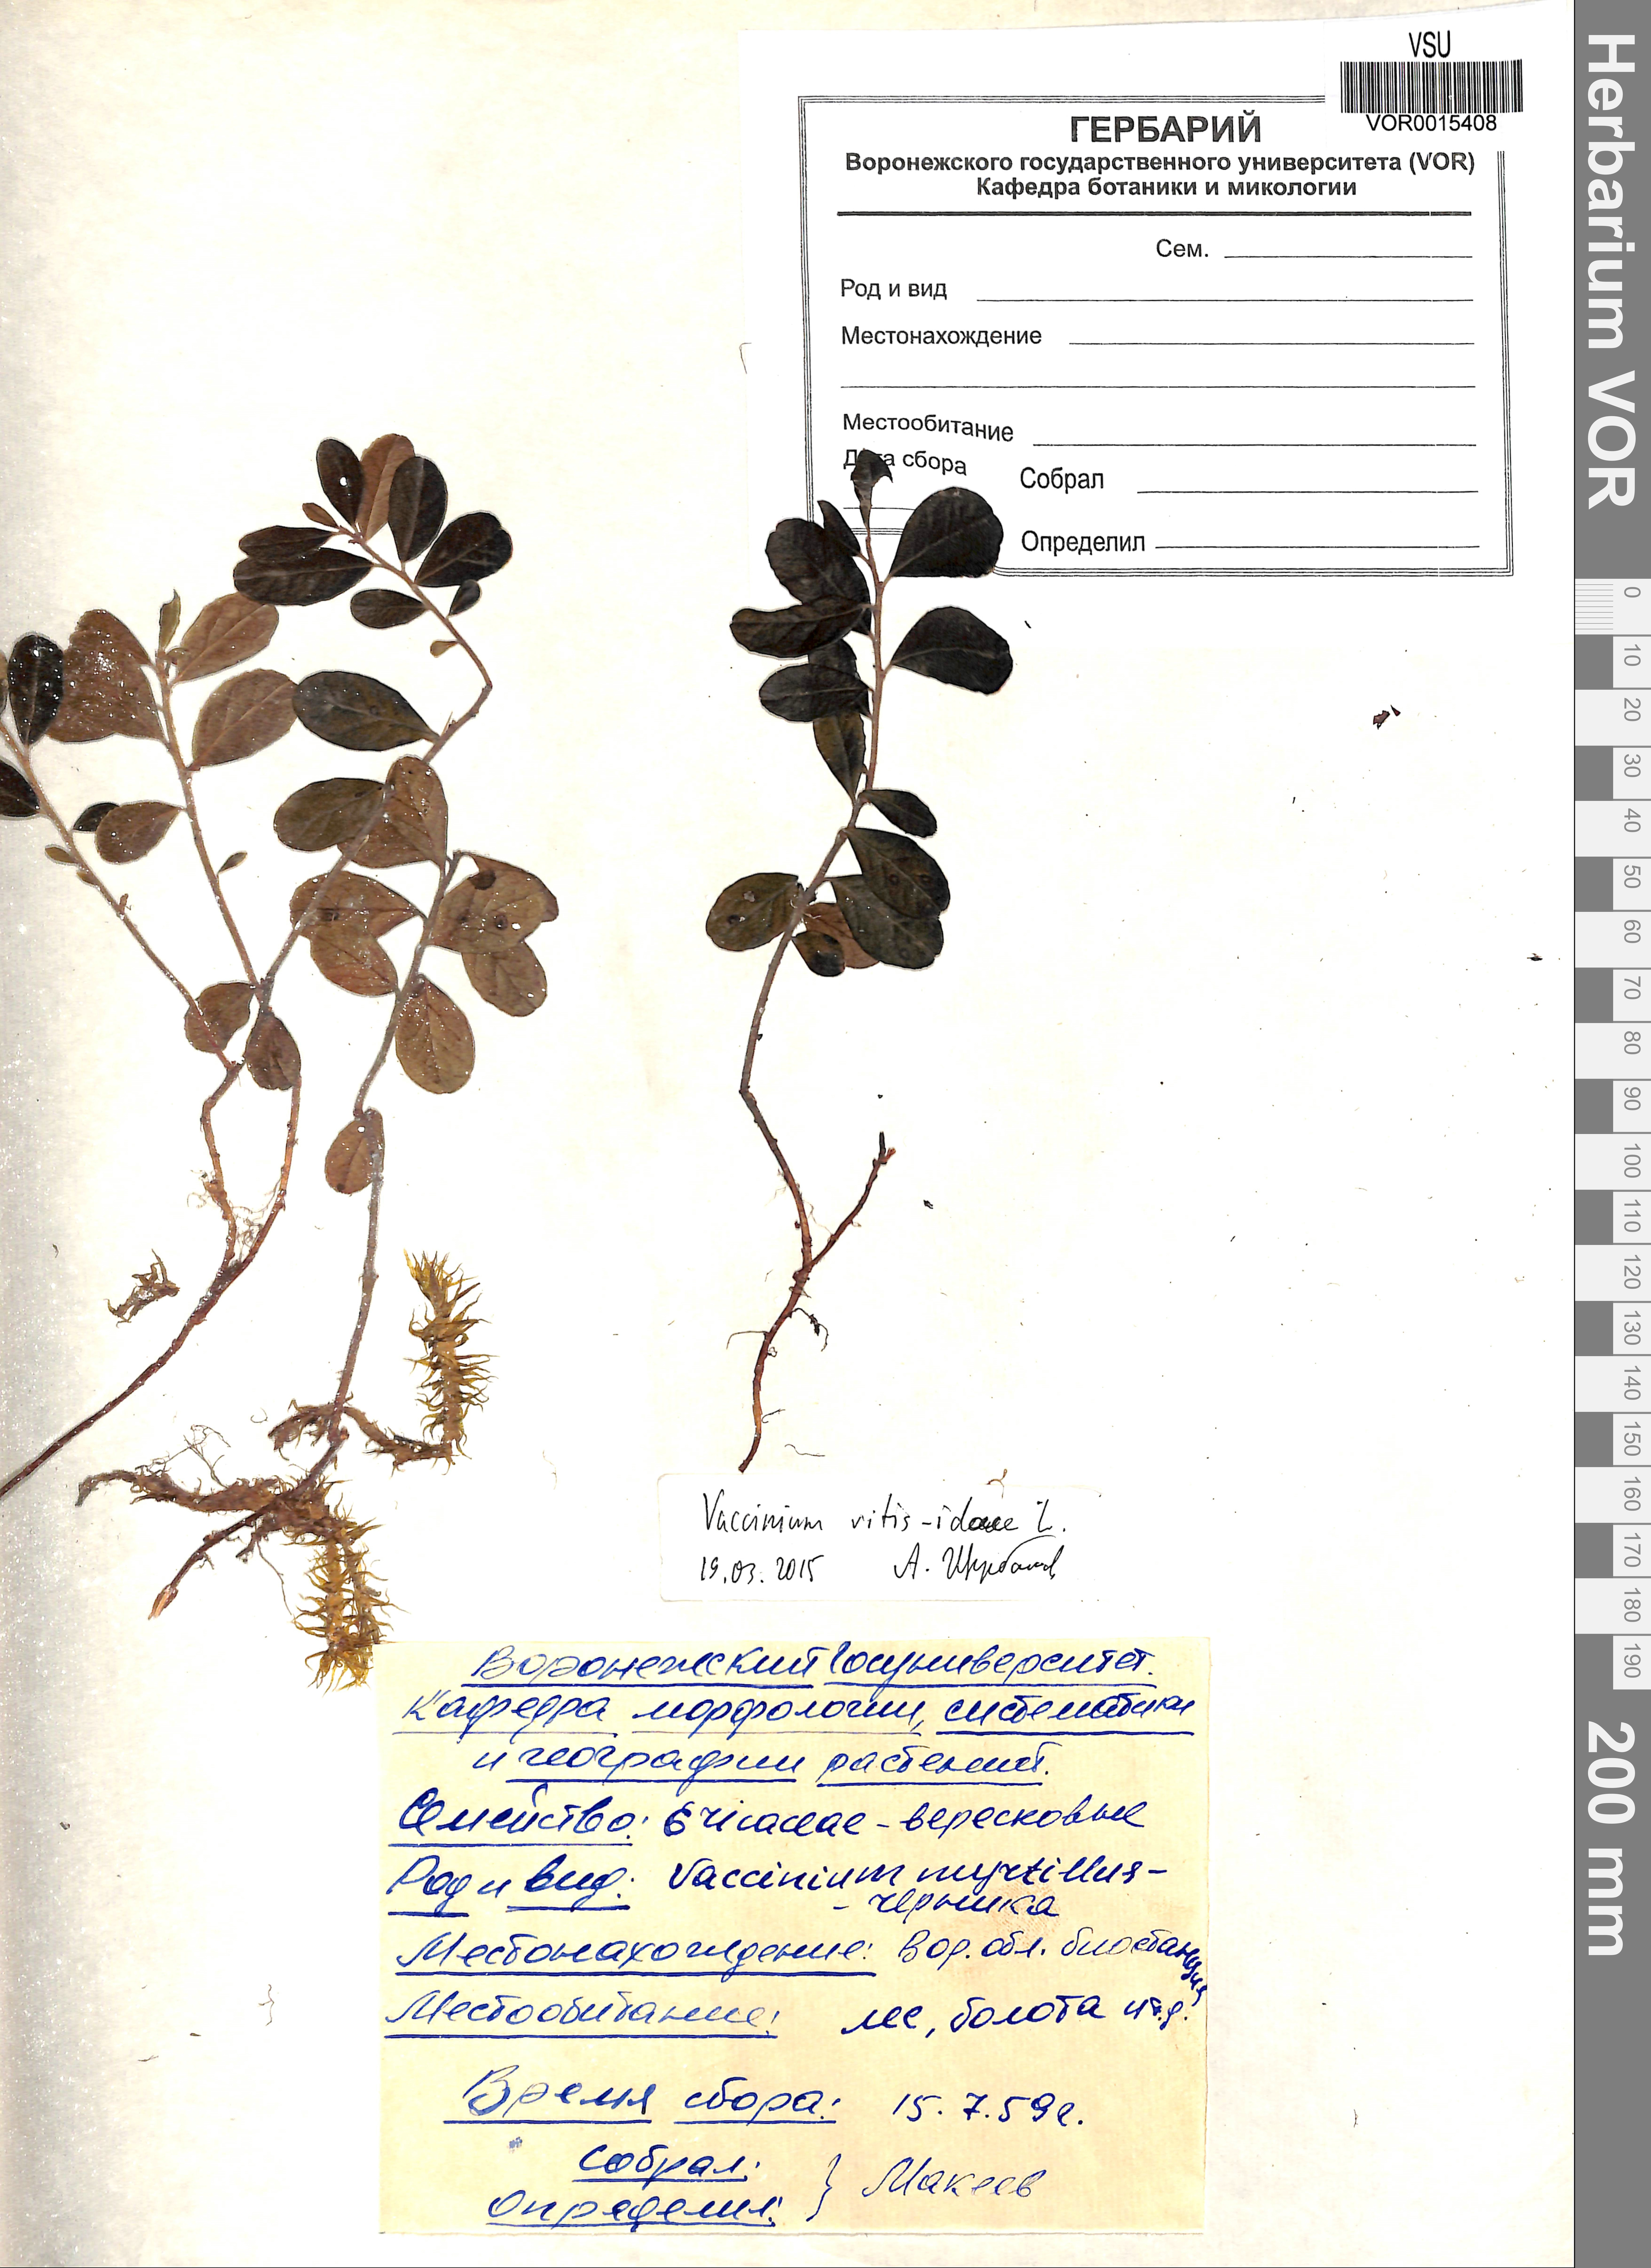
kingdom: Plantae
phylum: Tracheophyta
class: Magnoliopsida
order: Ericales
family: Ericaceae
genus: Vaccinium
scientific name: Vaccinium vitis-idaea
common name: Cowberry
